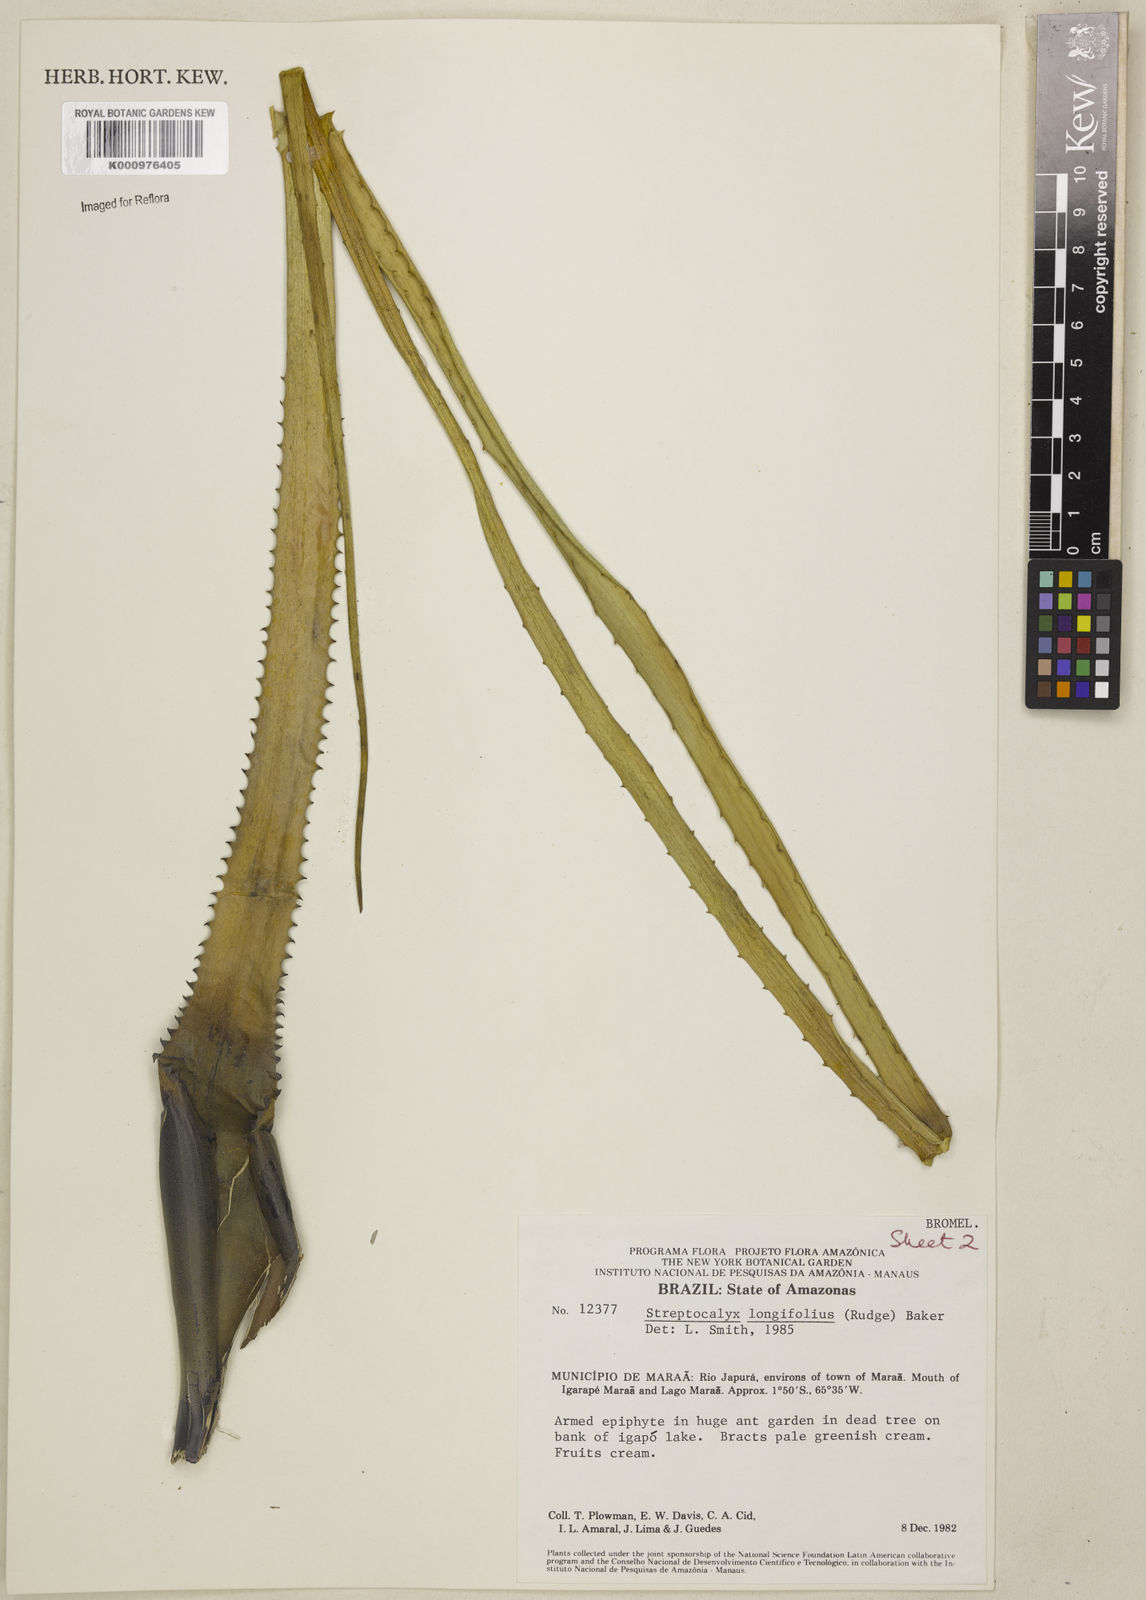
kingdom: Plantae
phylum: Tracheophyta
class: Liliopsida
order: Poales
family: Bromeliaceae
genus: Aechmea
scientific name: Aechmea longifolia
